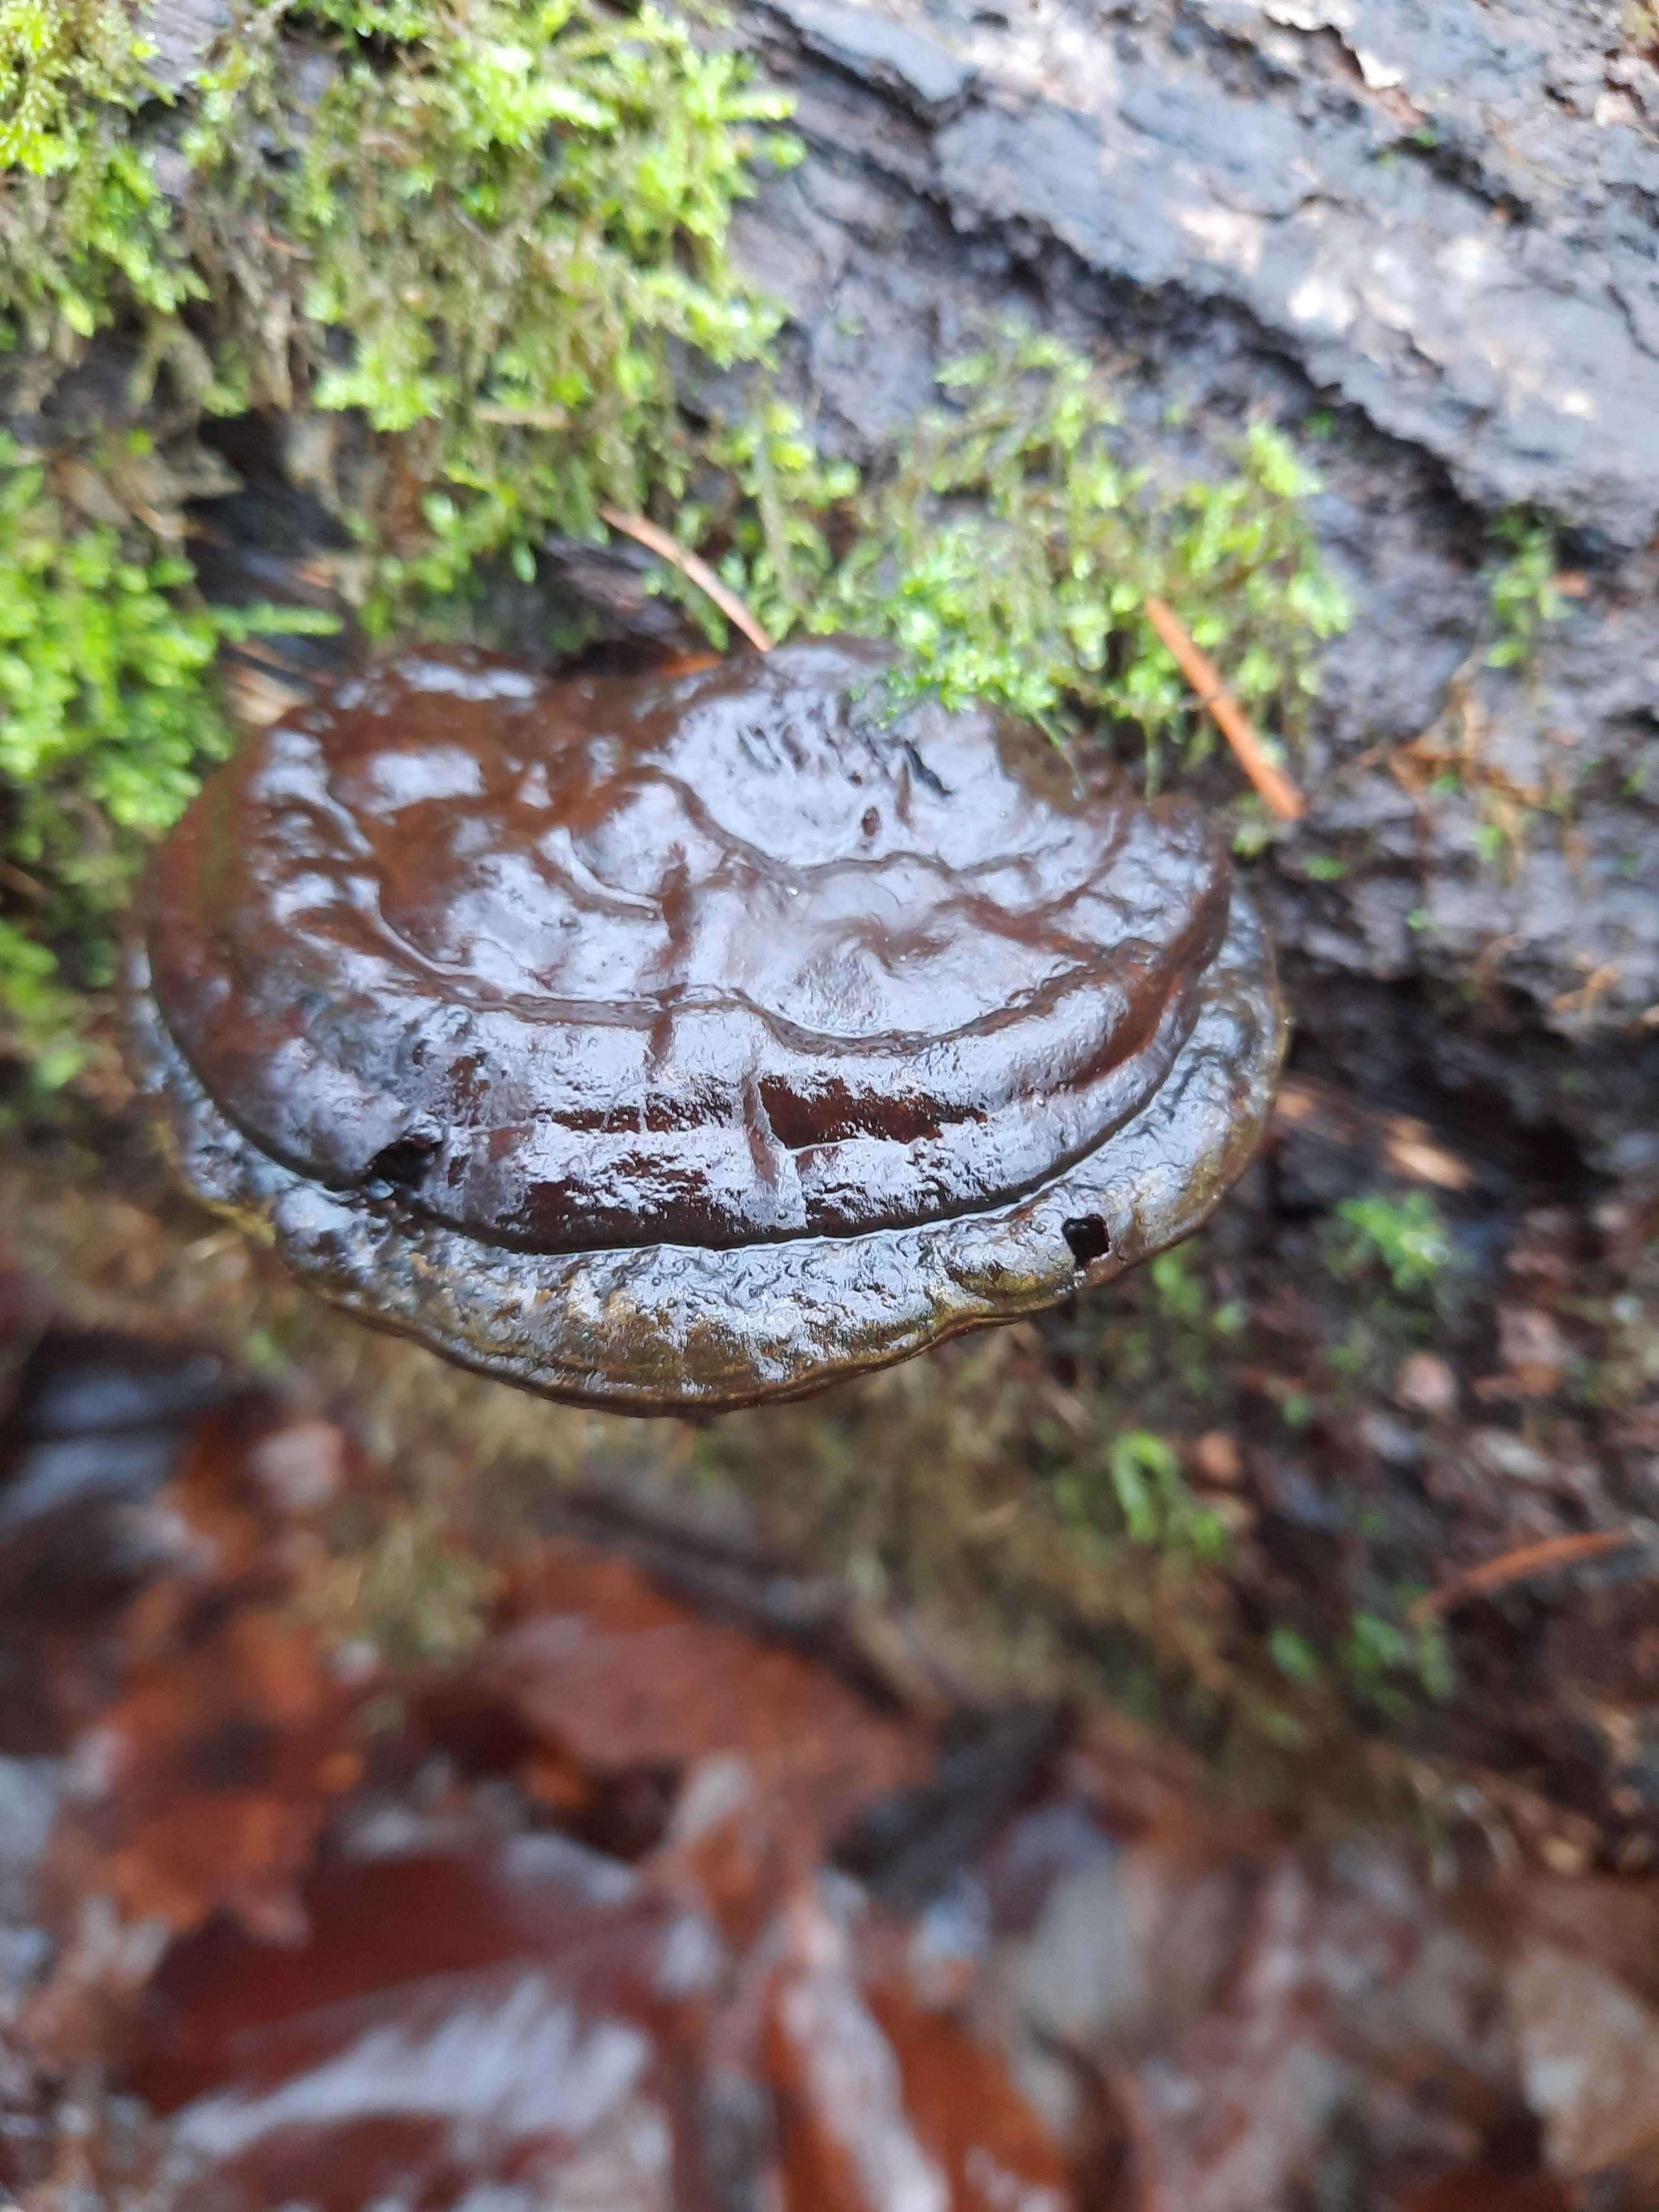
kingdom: Fungi
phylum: Basidiomycota
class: Agaricomycetes
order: Polyporales
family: Polyporaceae
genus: Ganoderma
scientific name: Ganoderma applanatum
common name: flad lakporesvamp
